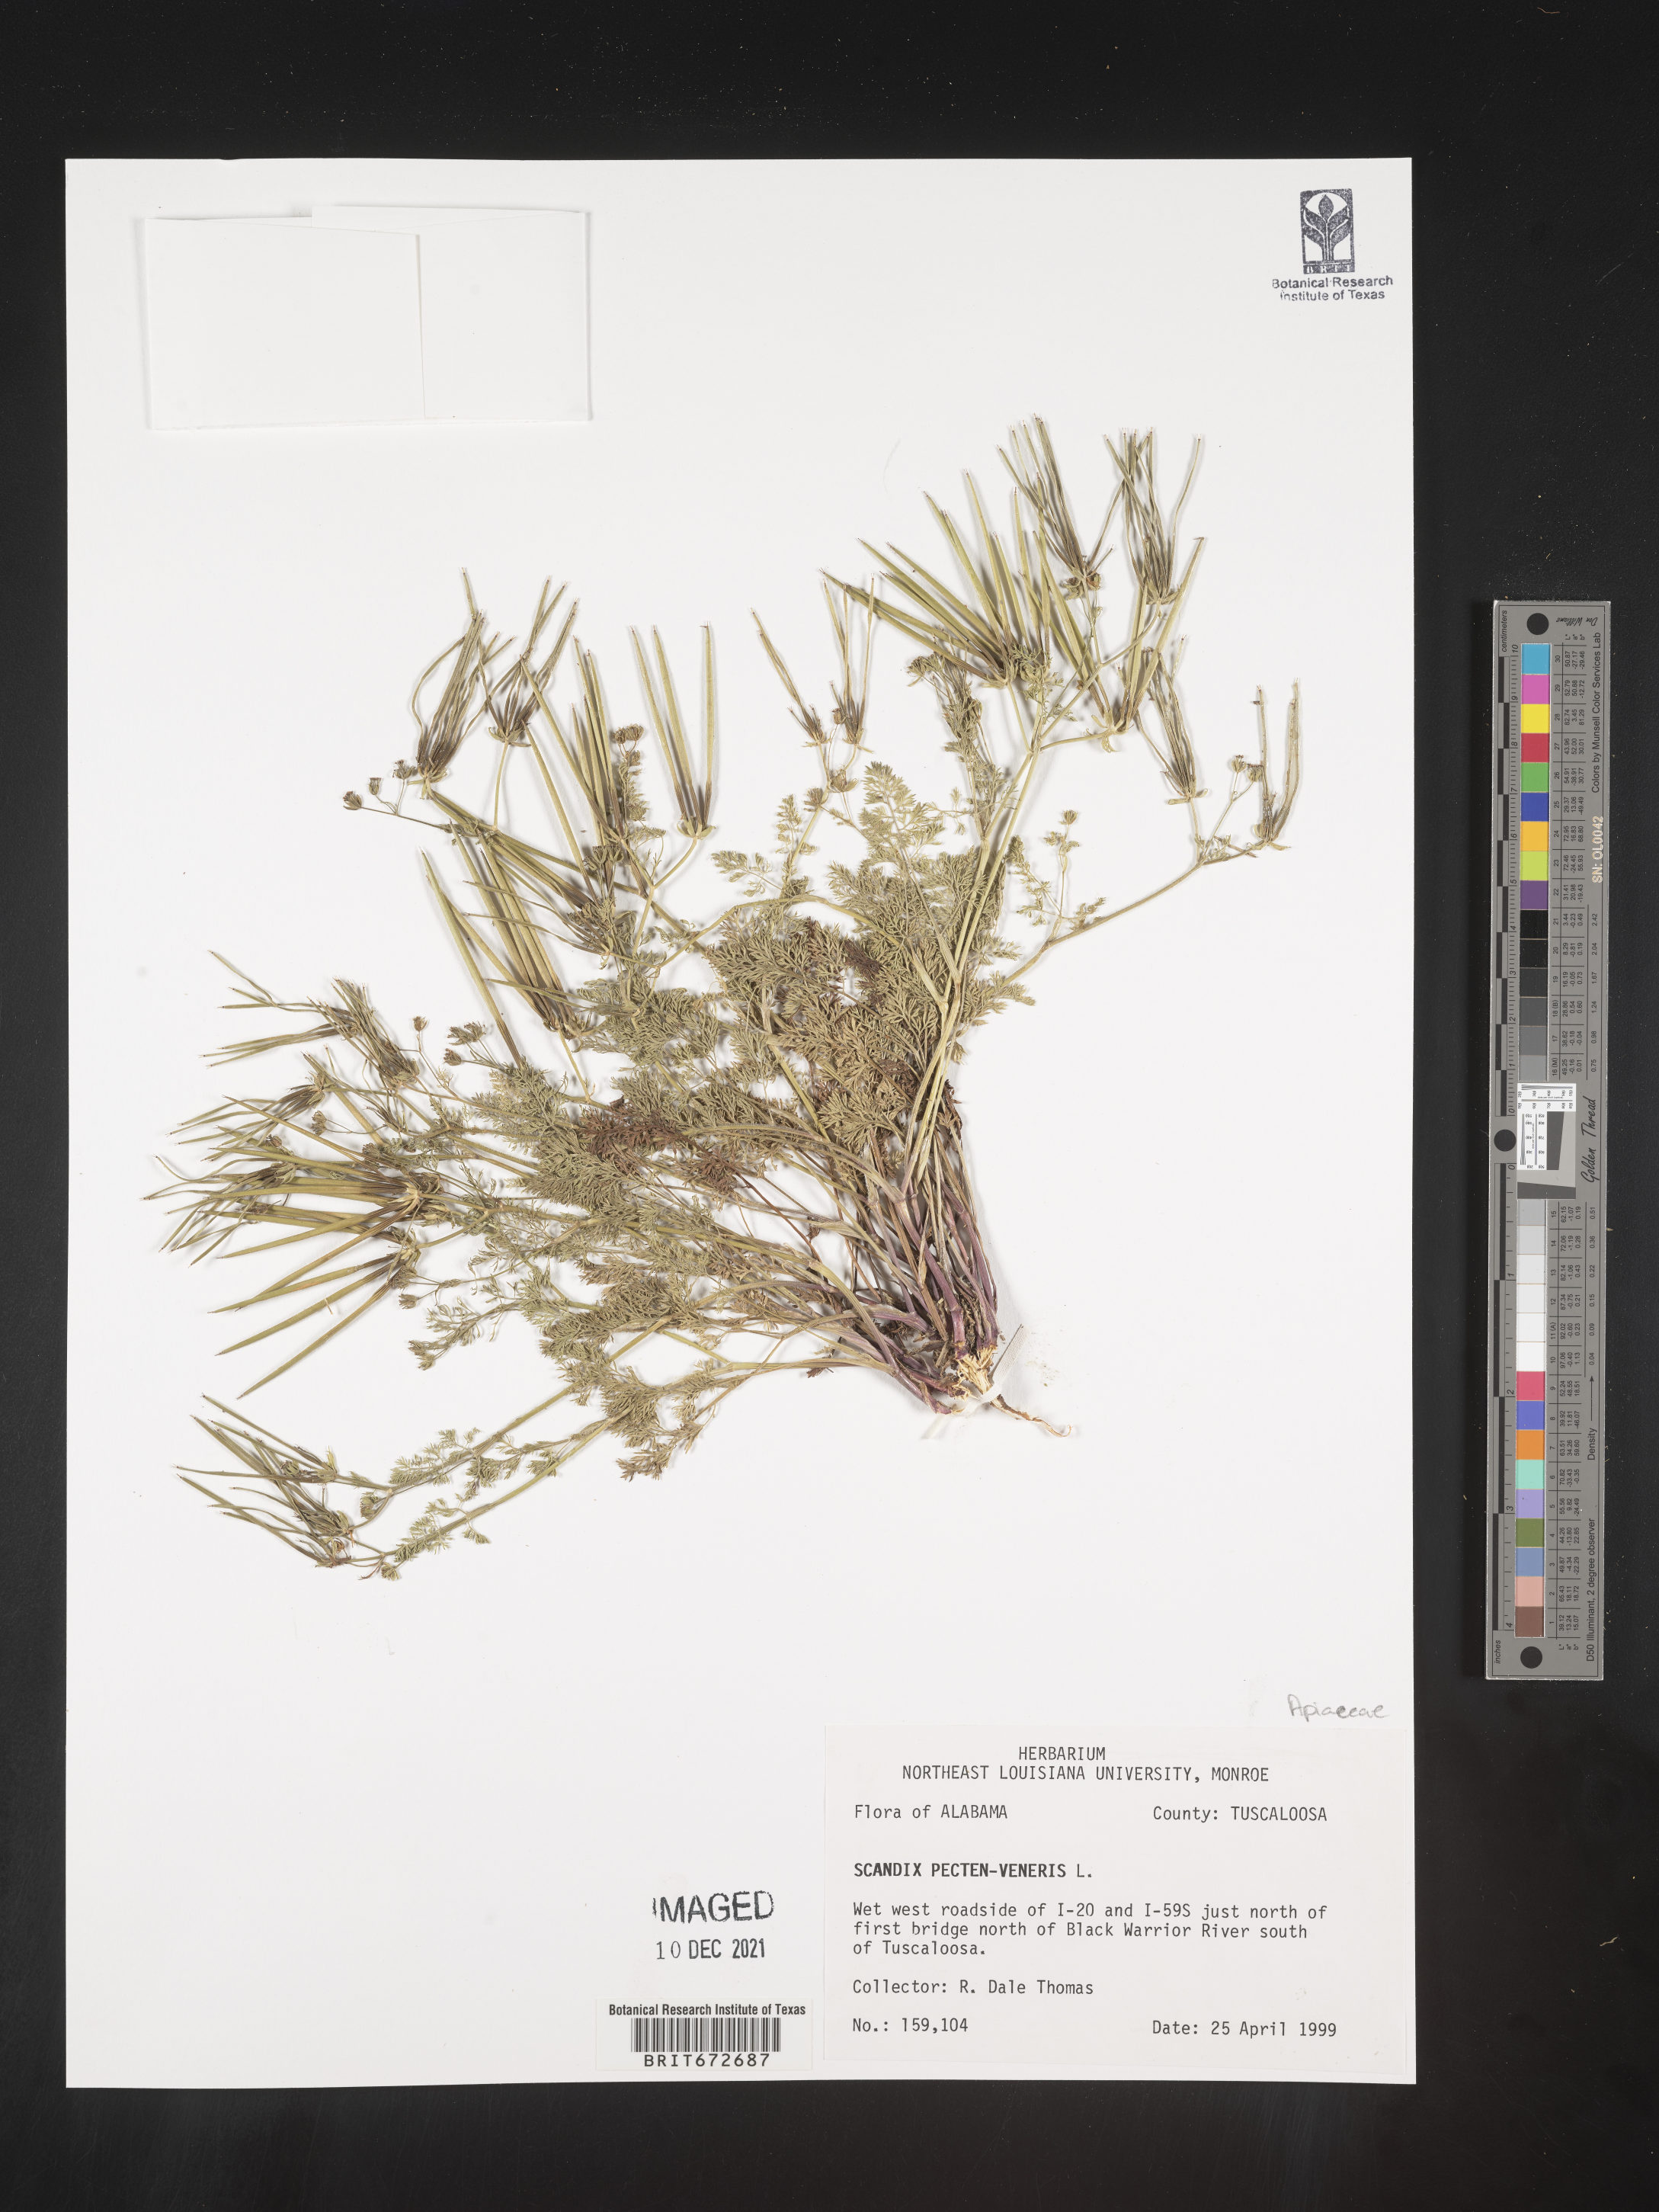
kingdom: Plantae
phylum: Tracheophyta
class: Magnoliopsida
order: Apiales
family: Apiaceae
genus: Scandix
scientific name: Scandix
